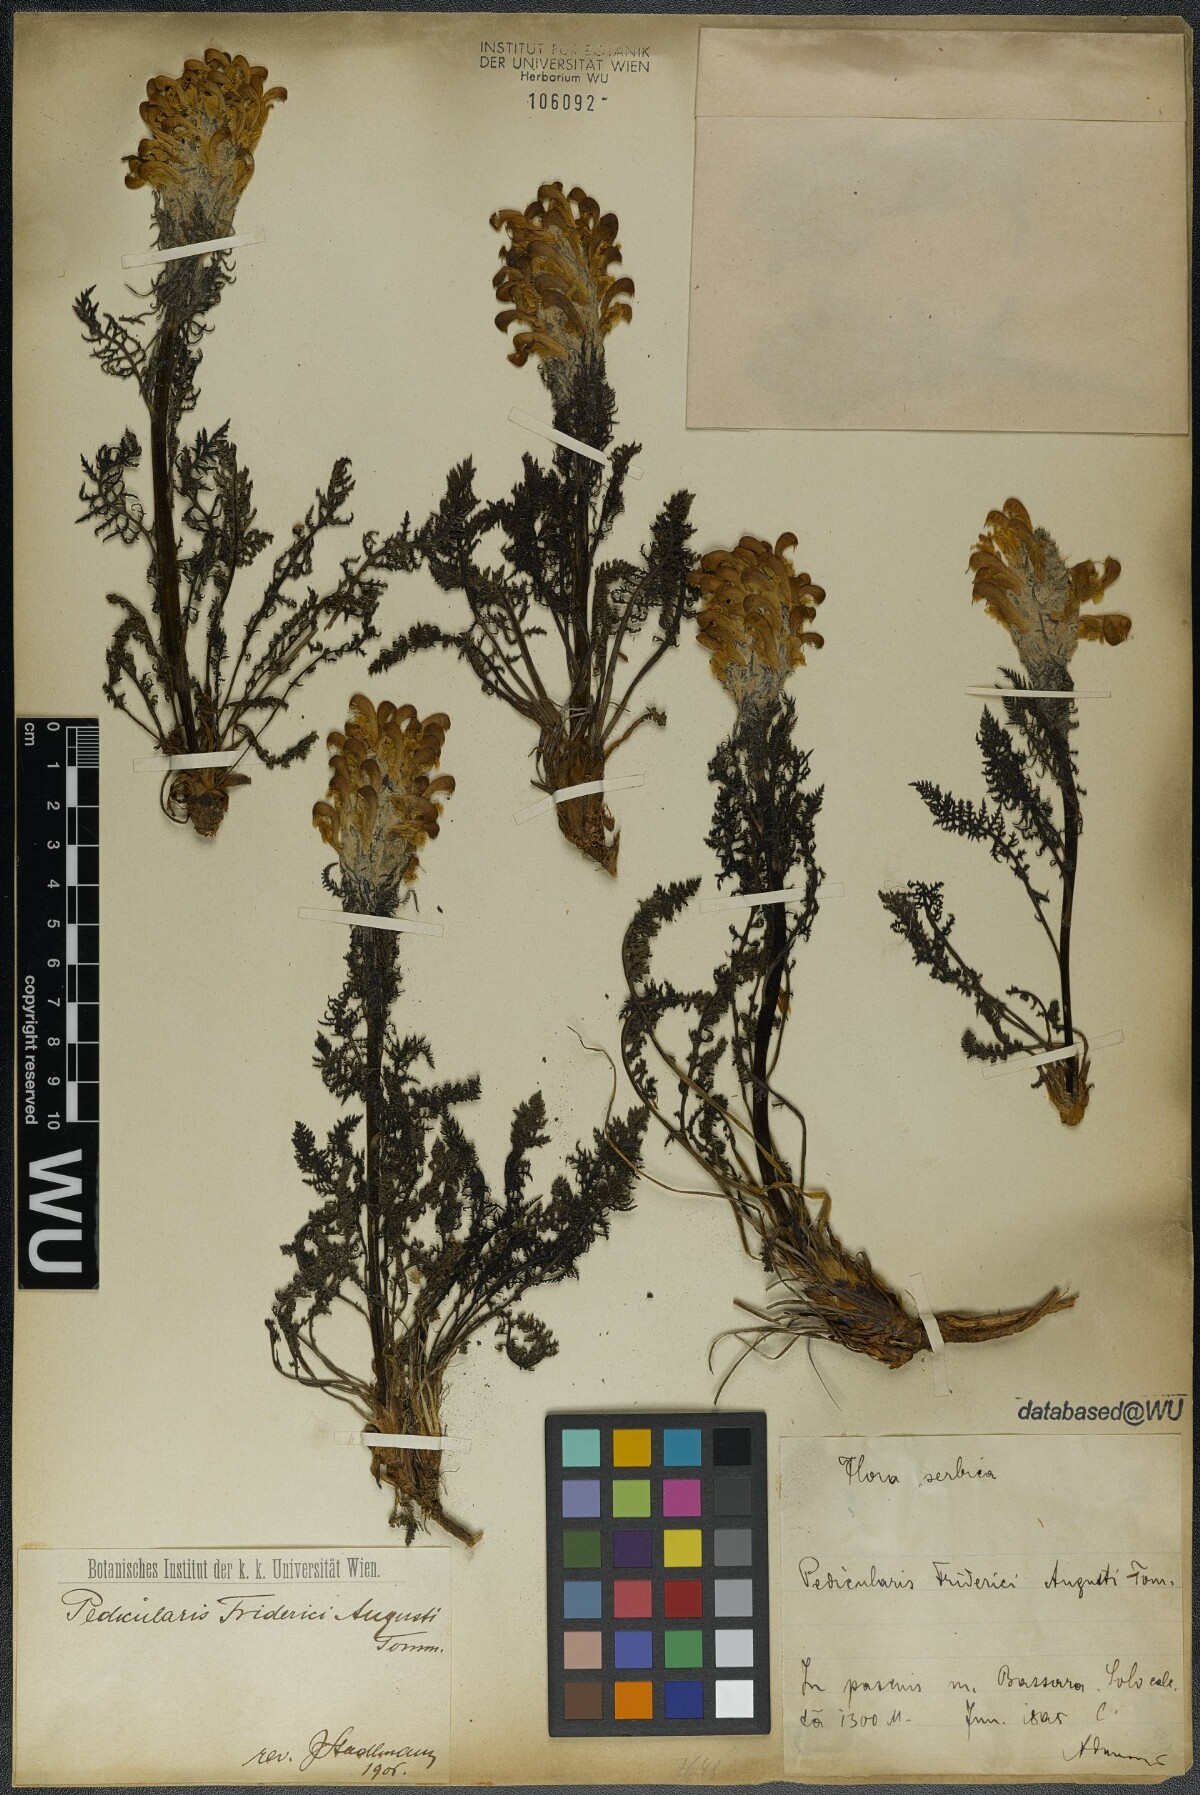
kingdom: Plantae
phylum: Tracheophyta
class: Magnoliopsida
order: Lamiales
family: Orobanchaceae
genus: Pedicularis
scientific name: Pedicularis friderici-augusti
